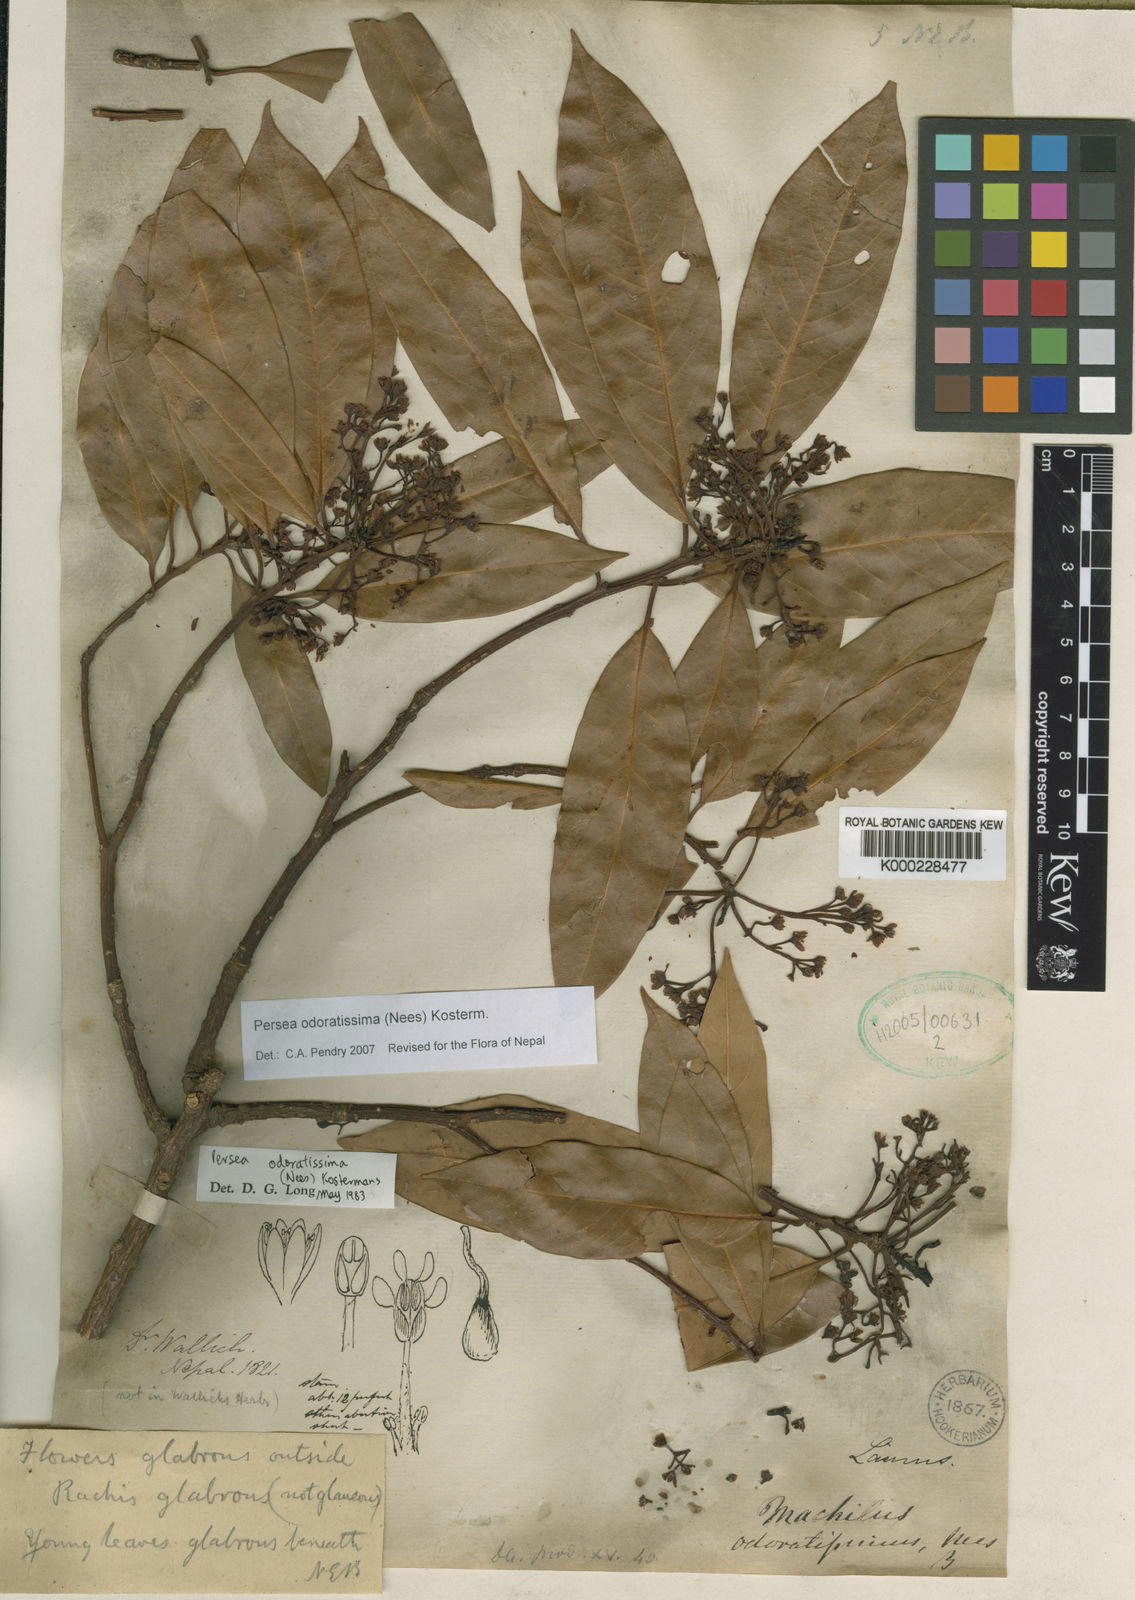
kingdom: Plantae
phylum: Tracheophyta
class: Magnoliopsida
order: Laurales
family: Lauraceae
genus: Machilus
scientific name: Machilus odoratissimus
